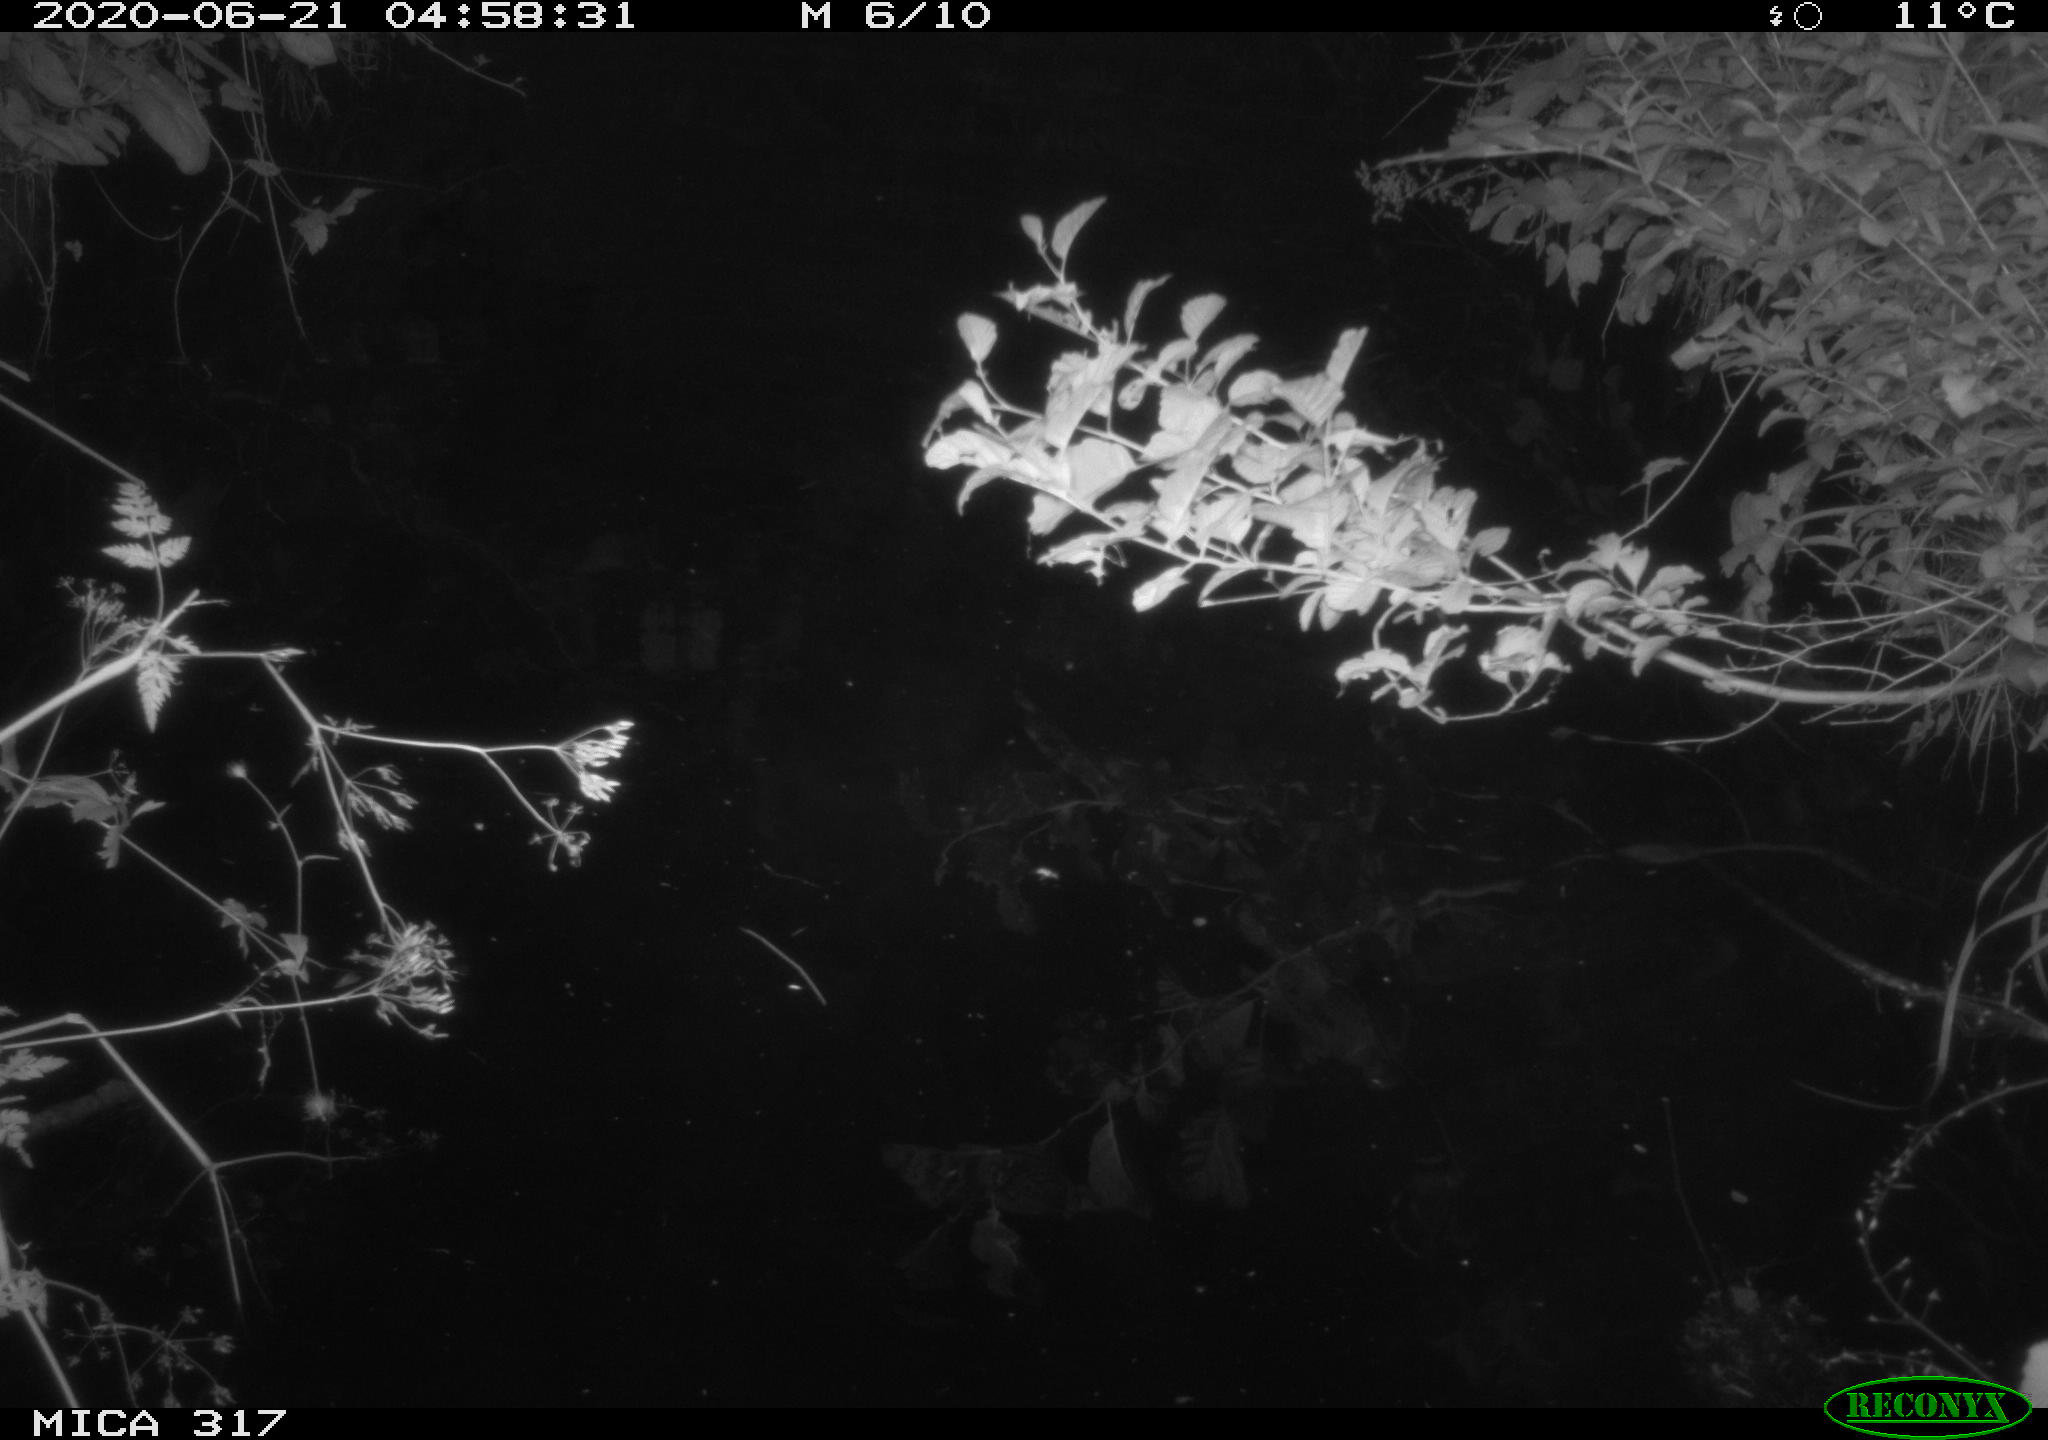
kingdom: Animalia
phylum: Chordata
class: Aves
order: Anseriformes
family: Anatidae
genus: Anas
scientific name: Anas platyrhynchos
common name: Mallard
